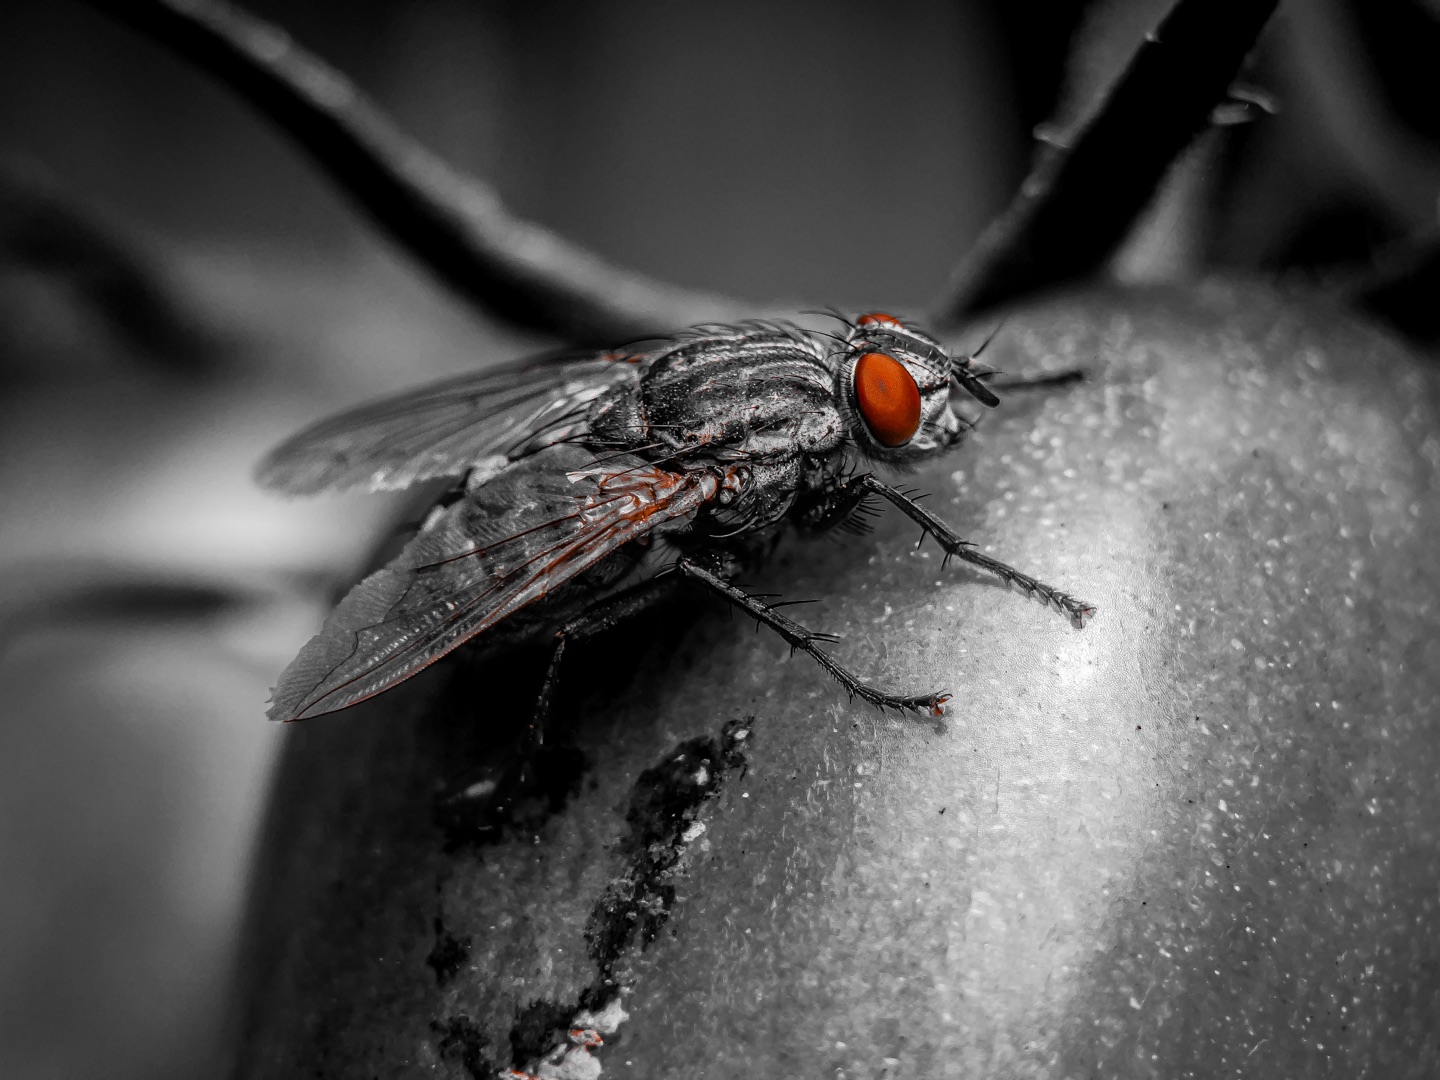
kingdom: Animalia
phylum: Arthropoda
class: Insecta
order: Diptera
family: Sarcophagidae
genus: Sarcophaga
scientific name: Sarcophaga
